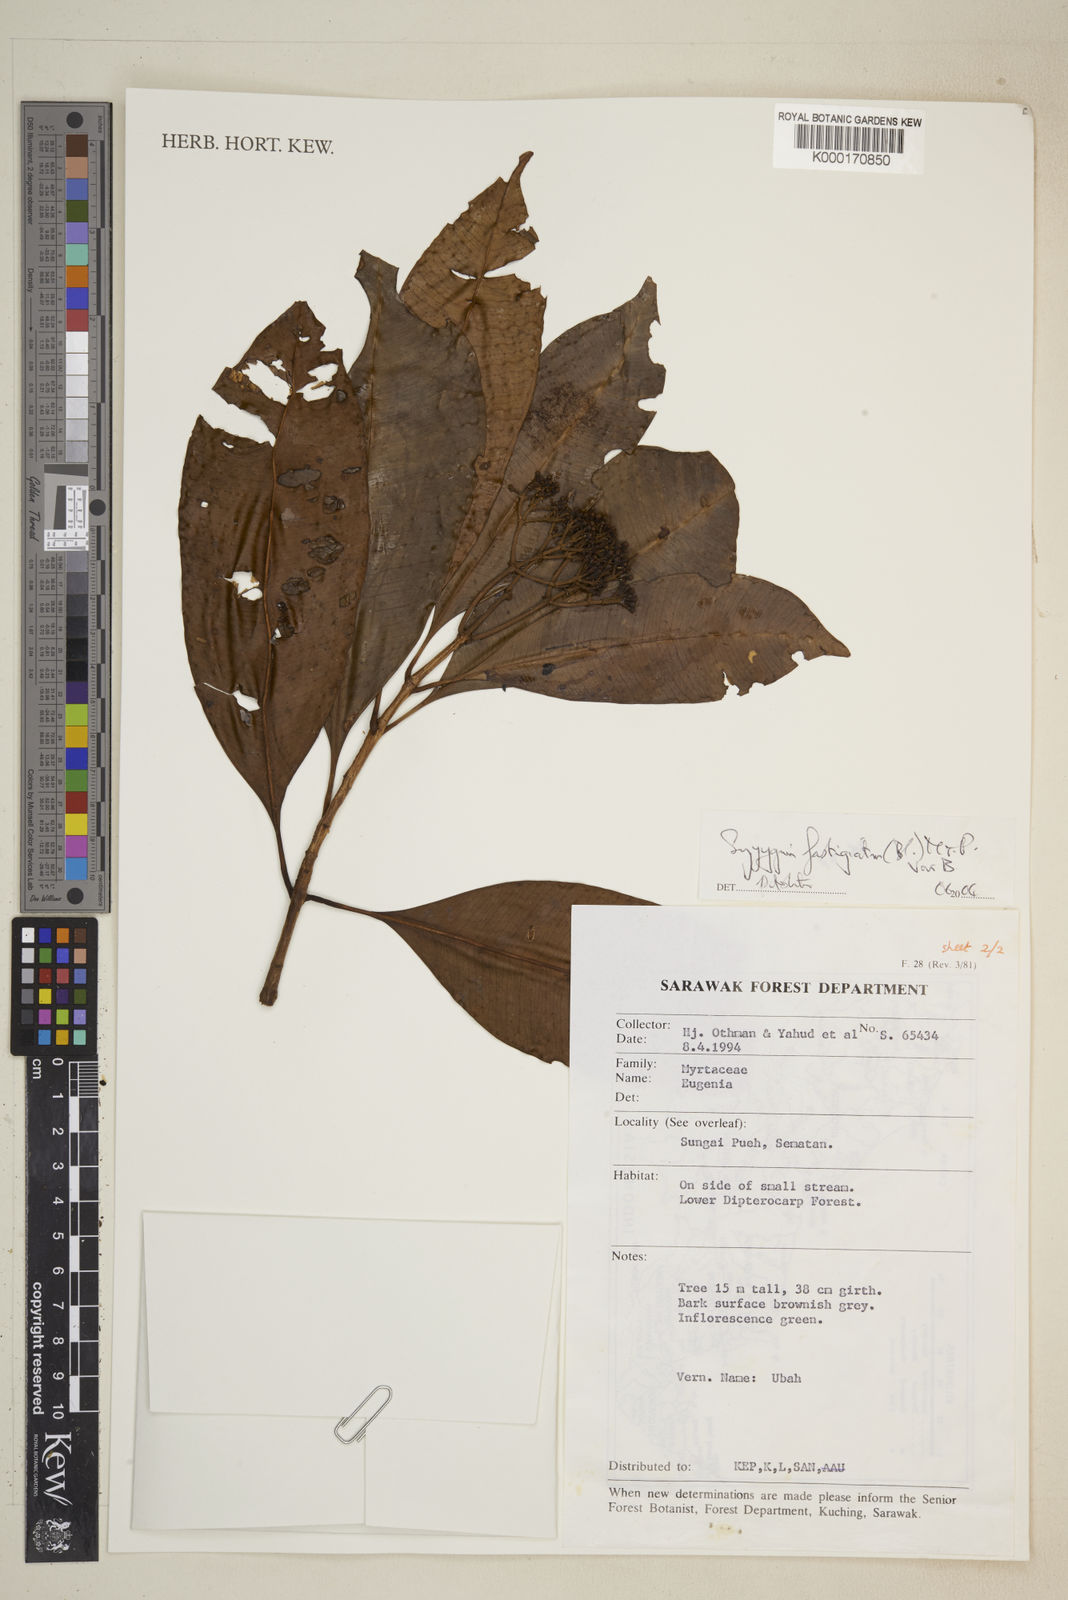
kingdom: Plantae
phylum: Tracheophyta
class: Magnoliopsida
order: Myrtales
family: Myrtaceae
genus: Syzygium
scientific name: Syzygium fastigiatum
